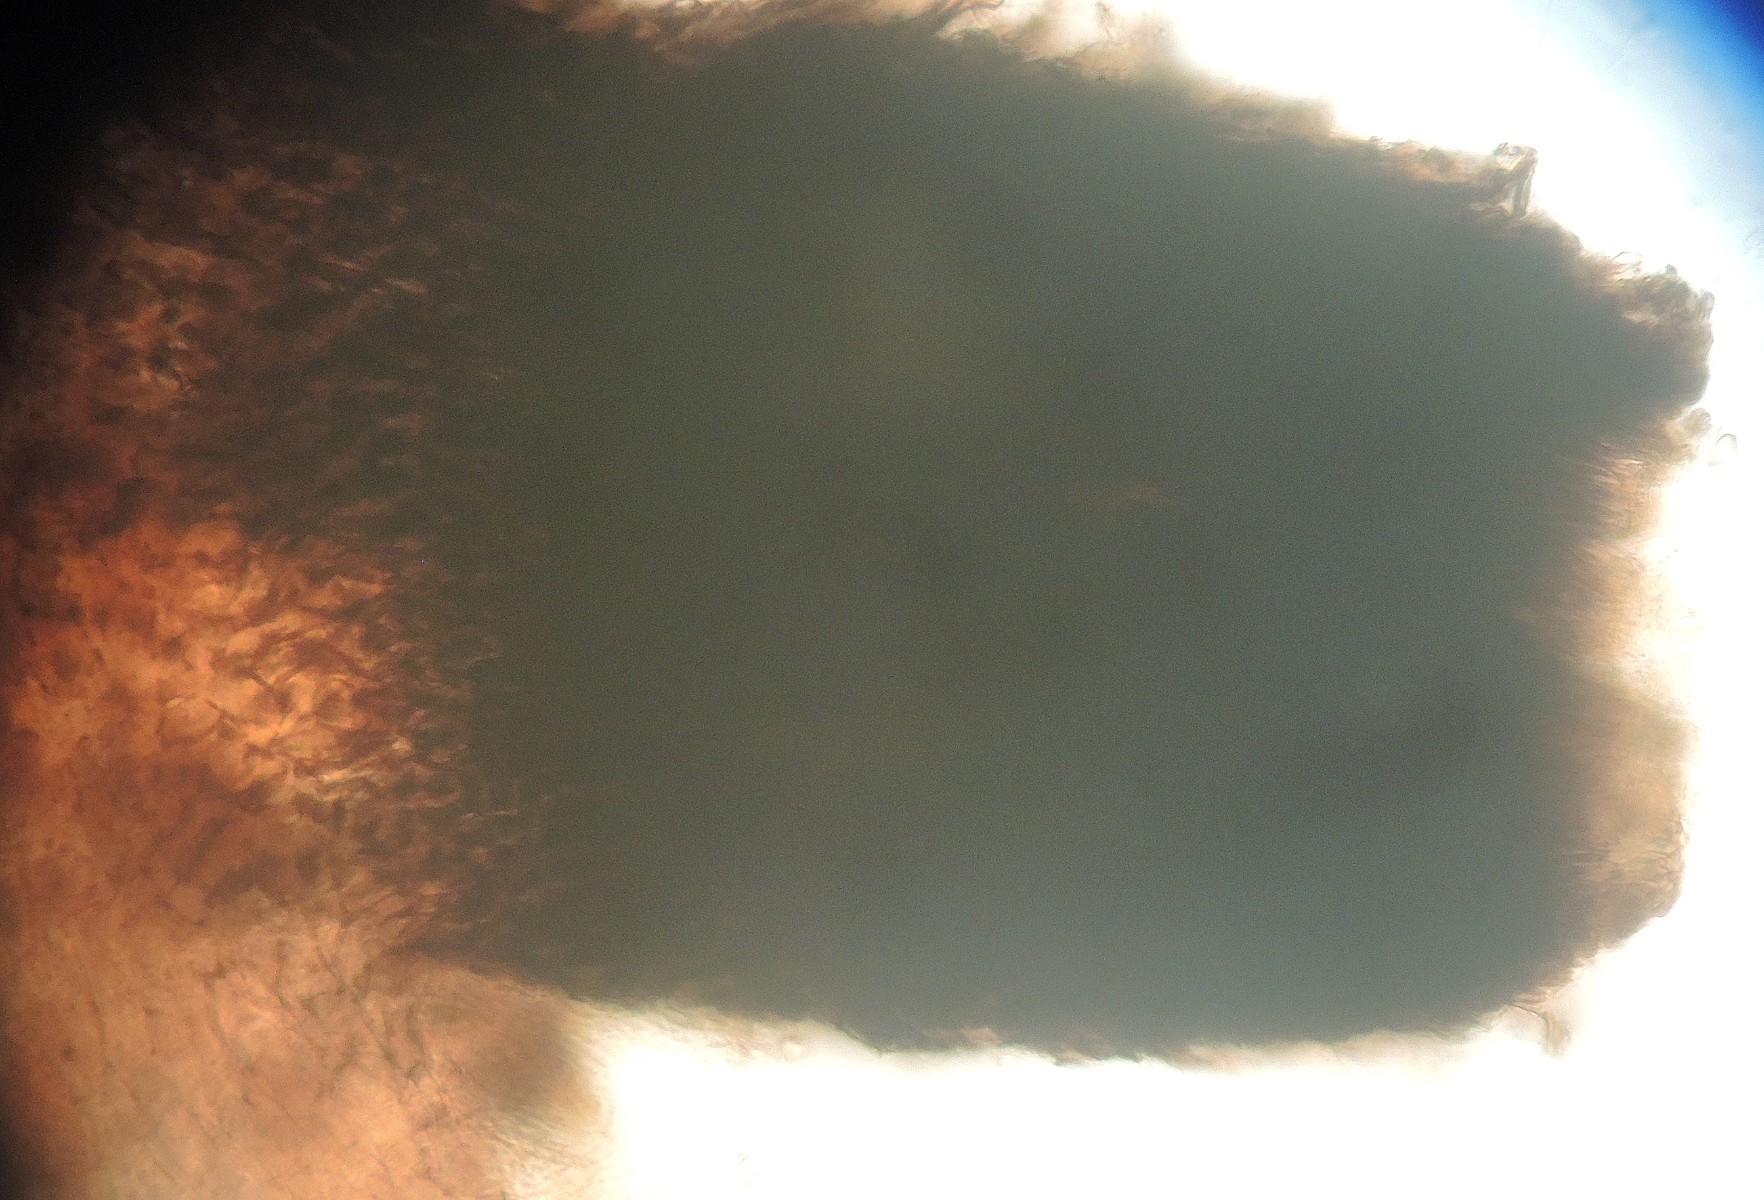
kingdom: Fungi
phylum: Ascomycota
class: Sordariomycetes
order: Sordariales
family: Podosporaceae
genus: Podospora
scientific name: Podospora intestinacea
